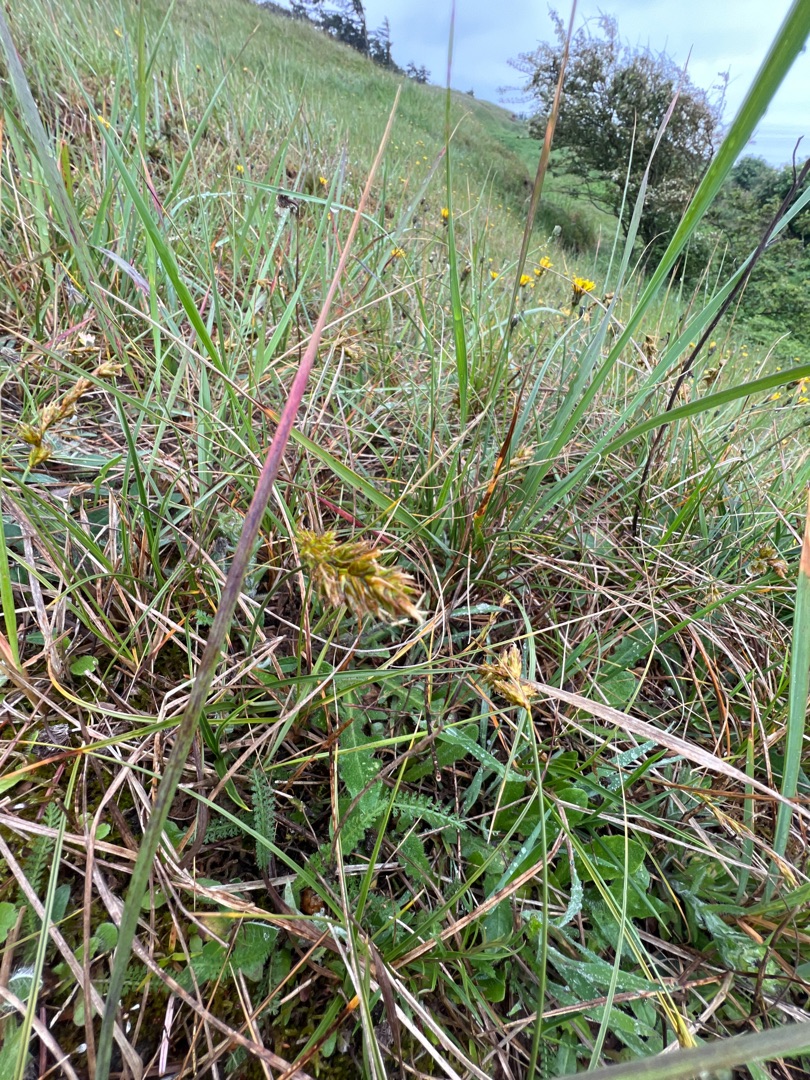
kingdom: Plantae
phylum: Tracheophyta
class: Liliopsida
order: Poales
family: Cyperaceae
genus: Carex
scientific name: Carex arenaria
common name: Sand-star
